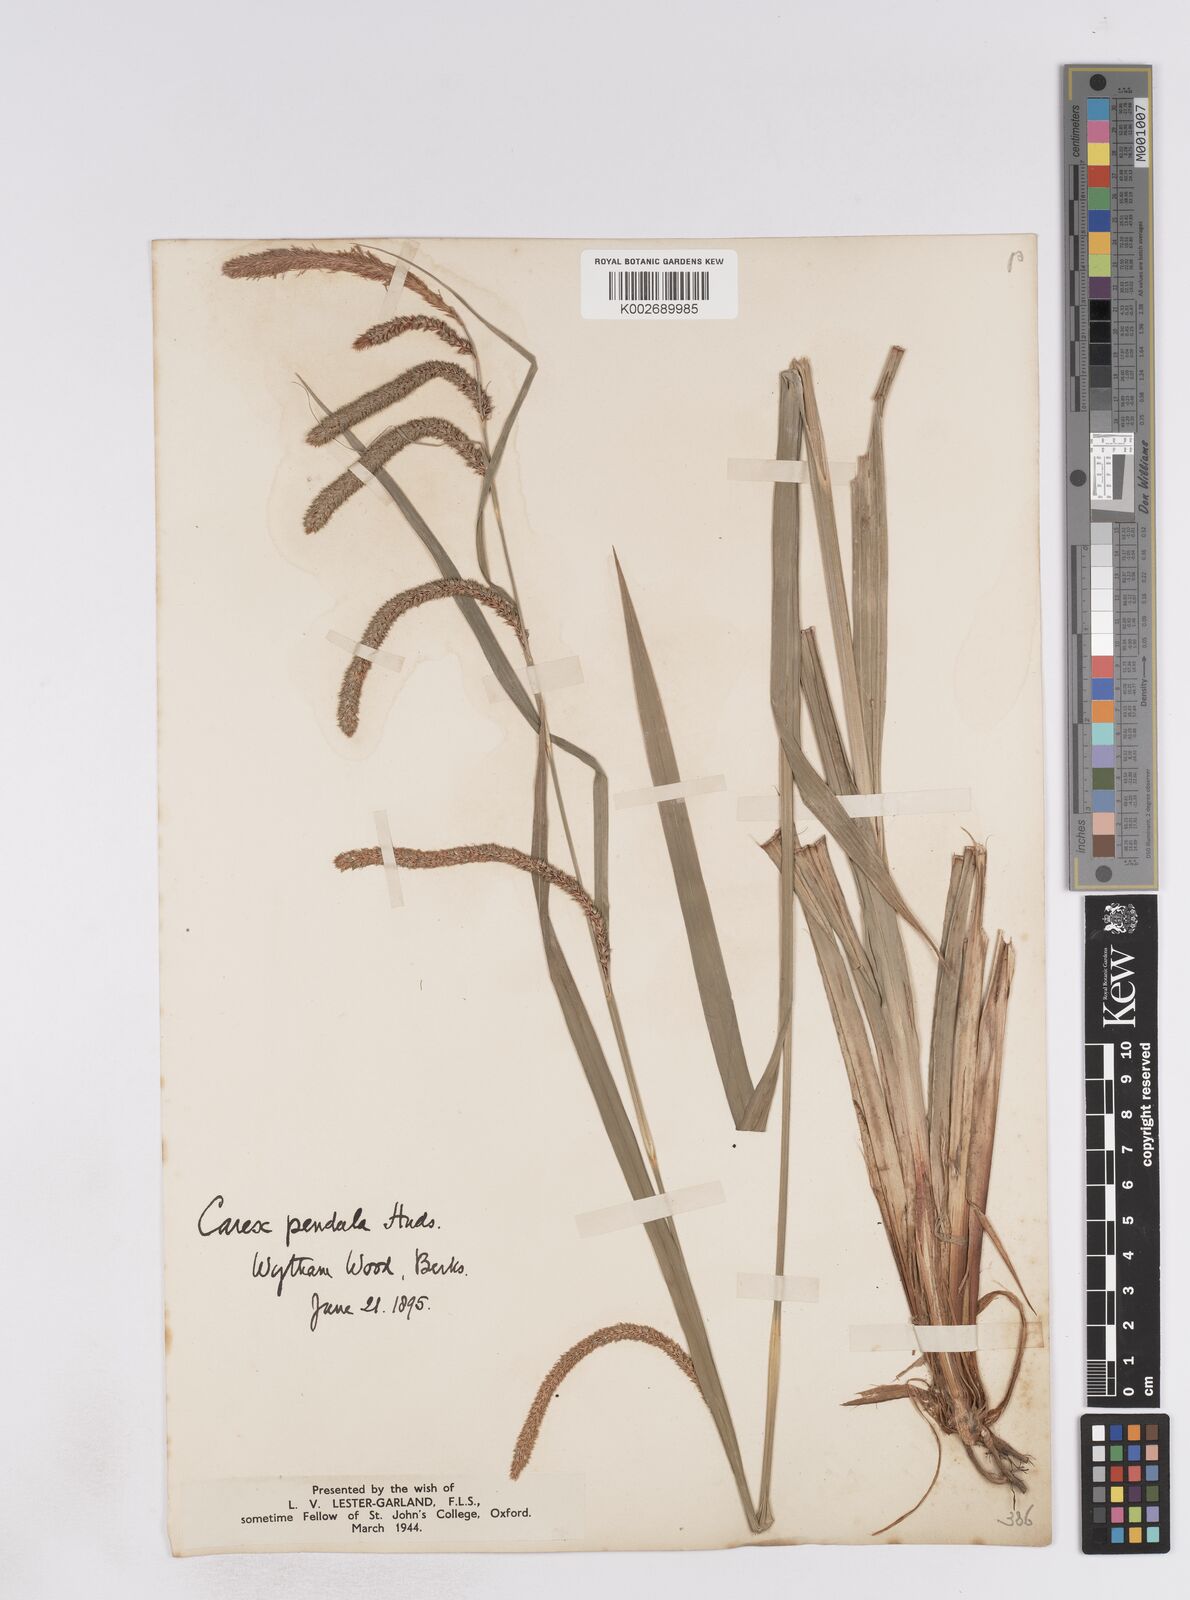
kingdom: Plantae
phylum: Tracheophyta
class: Liliopsida
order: Poales
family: Cyperaceae
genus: Carex
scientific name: Carex pendula
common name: Pendulous sedge
